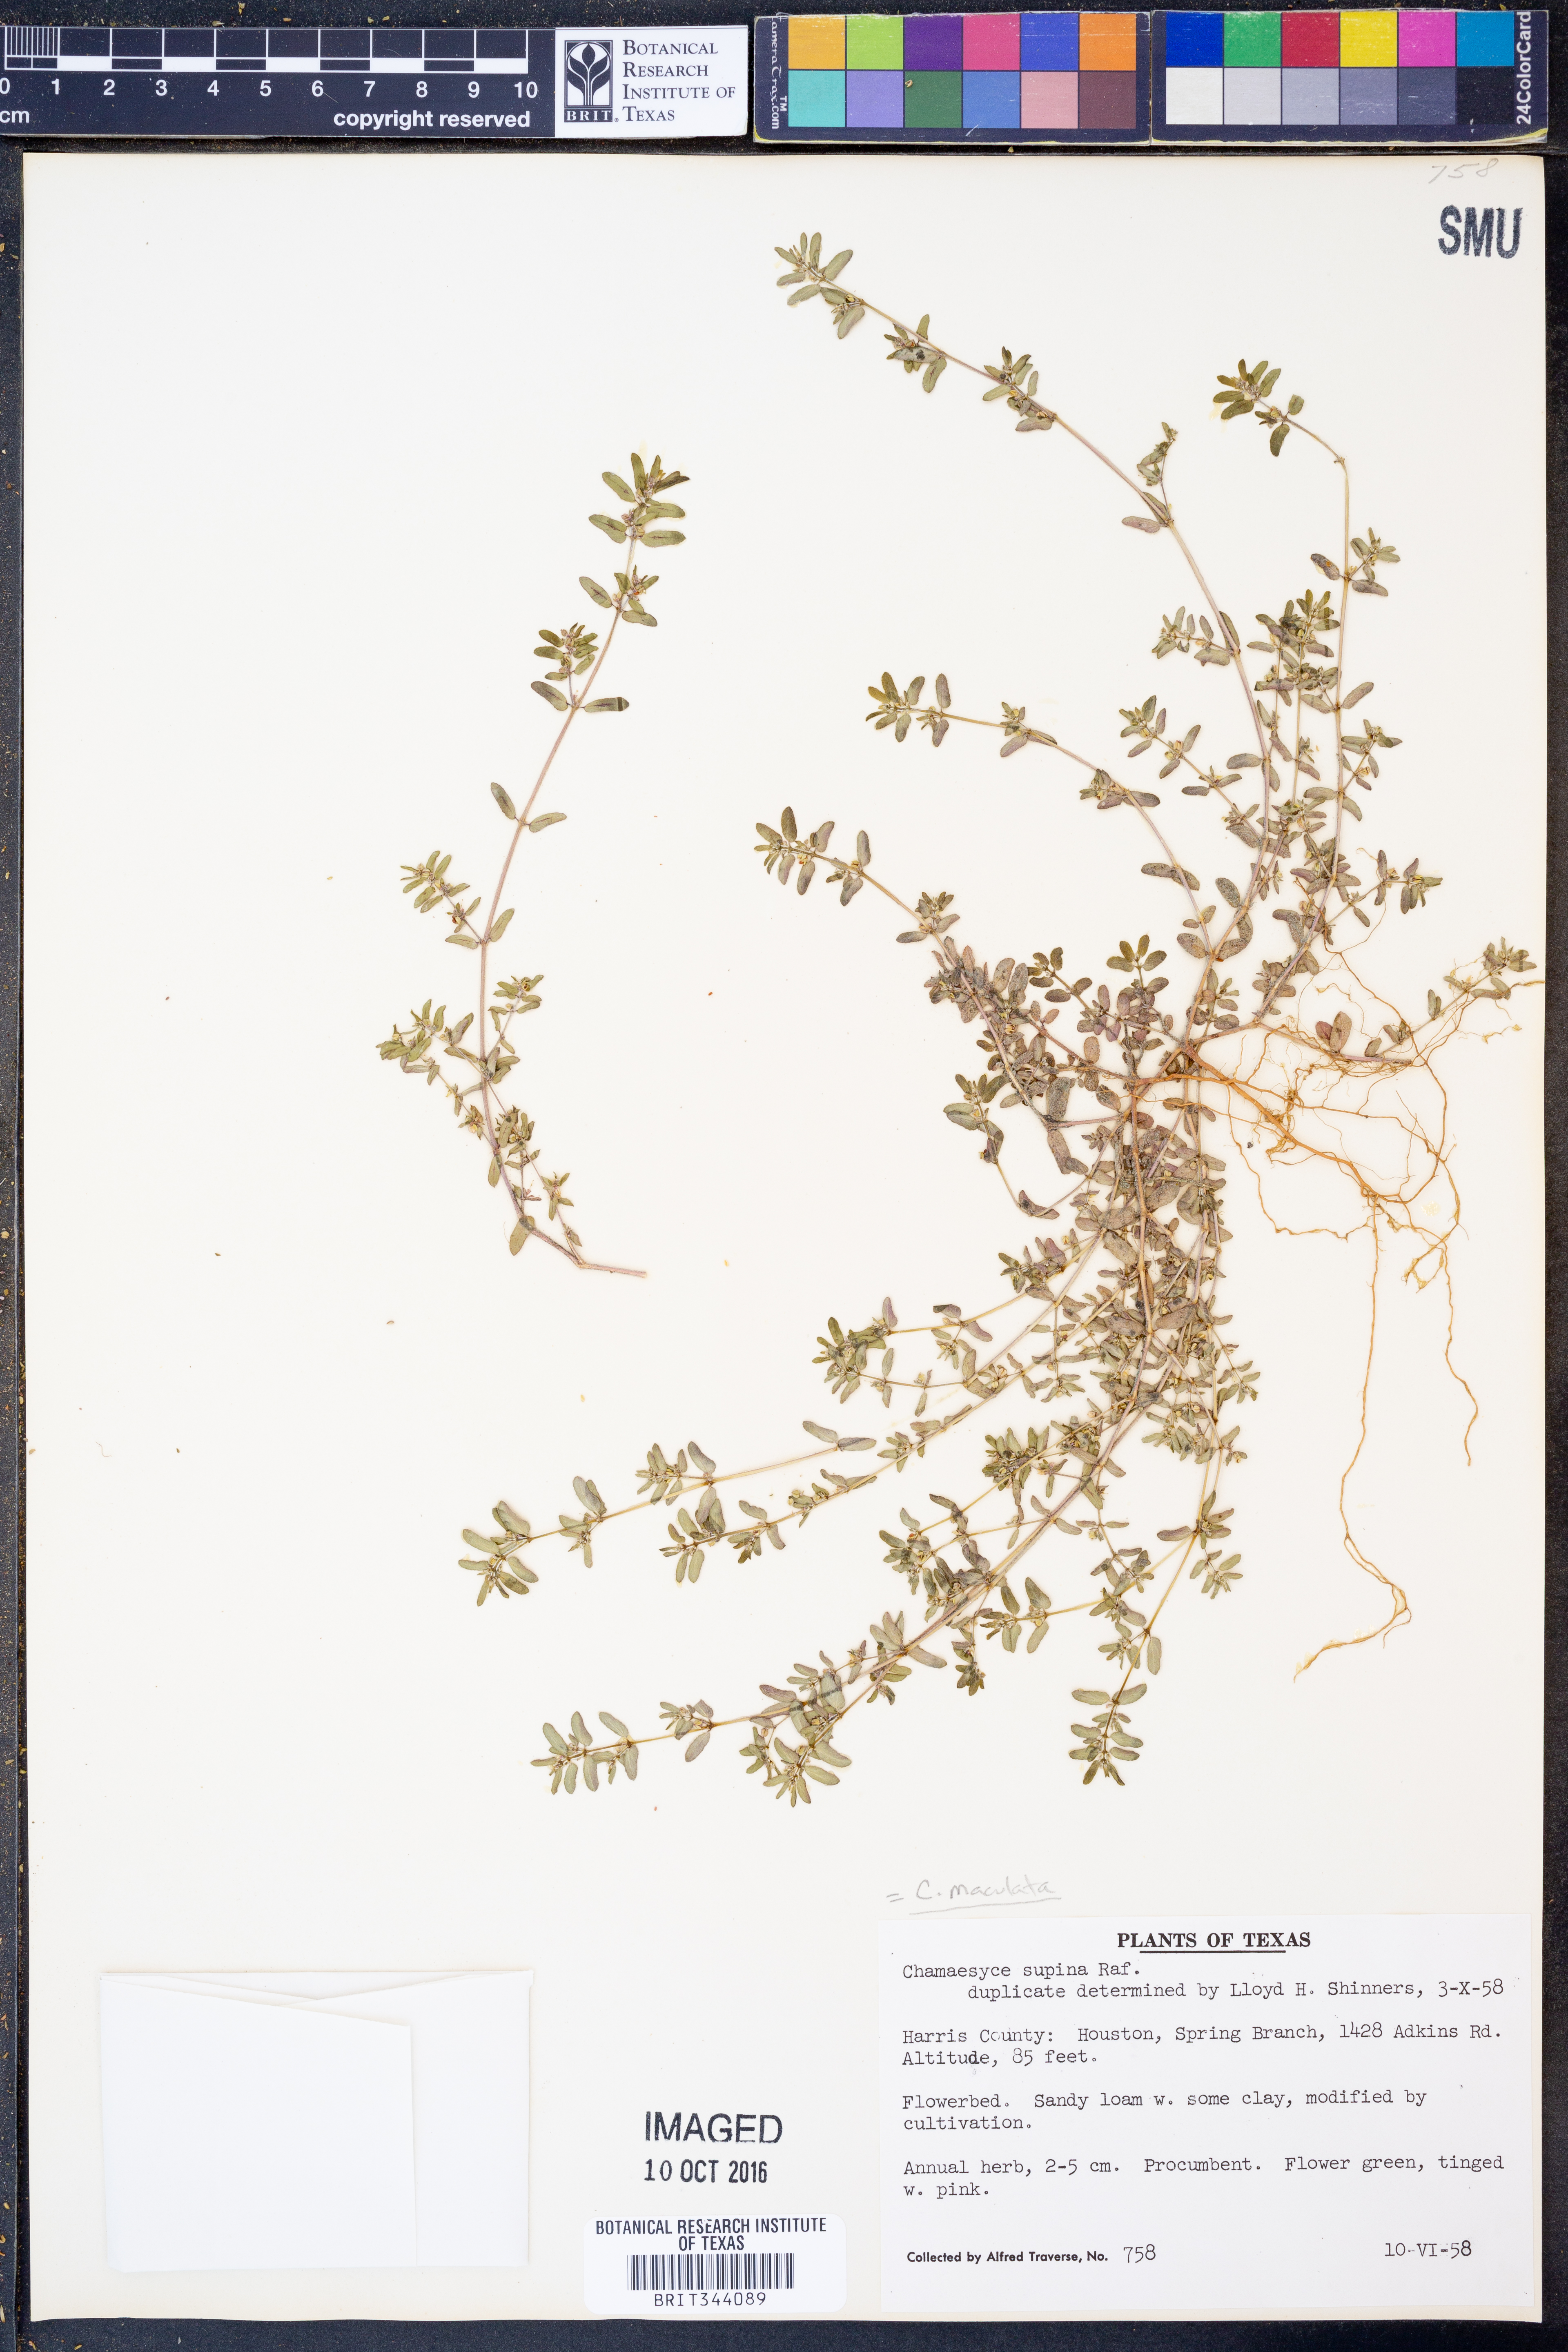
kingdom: Plantae
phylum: Tracheophyta
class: Magnoliopsida
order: Malpighiales
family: Euphorbiaceae
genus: Euphorbia
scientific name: Euphorbia maculata
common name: Spotted spurge
